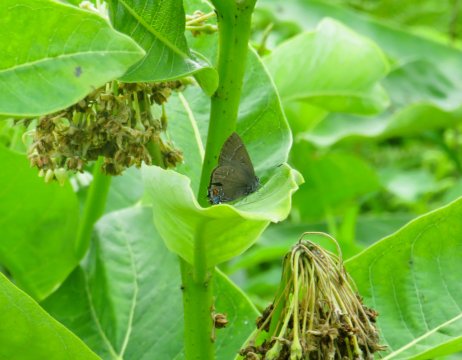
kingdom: Animalia
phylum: Arthropoda
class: Insecta
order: Lepidoptera
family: Lycaenidae
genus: Satyrium
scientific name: Satyrium calanus
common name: Banded Hairstreak
